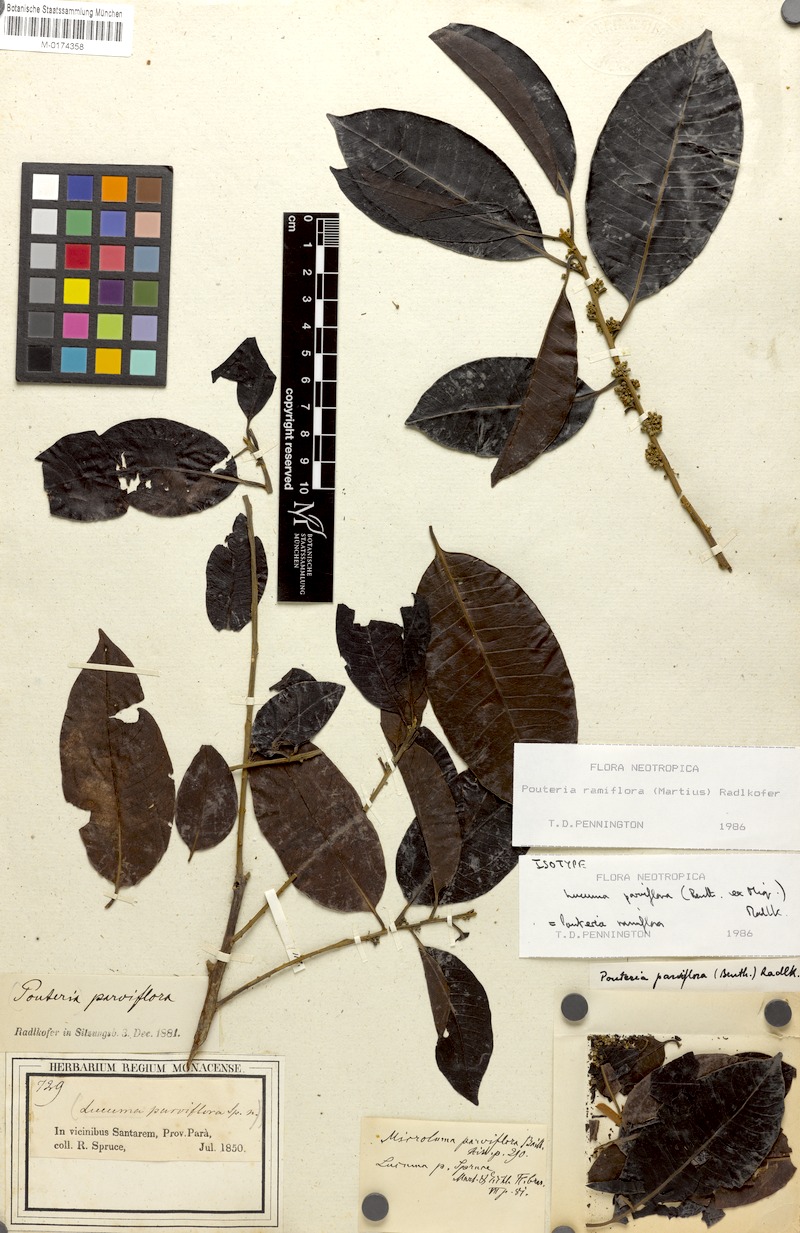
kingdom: Plantae
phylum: Tracheophyta
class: Magnoliopsida
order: Ericales
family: Sapotaceae
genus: Pouteria
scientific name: Pouteria ramiflora
